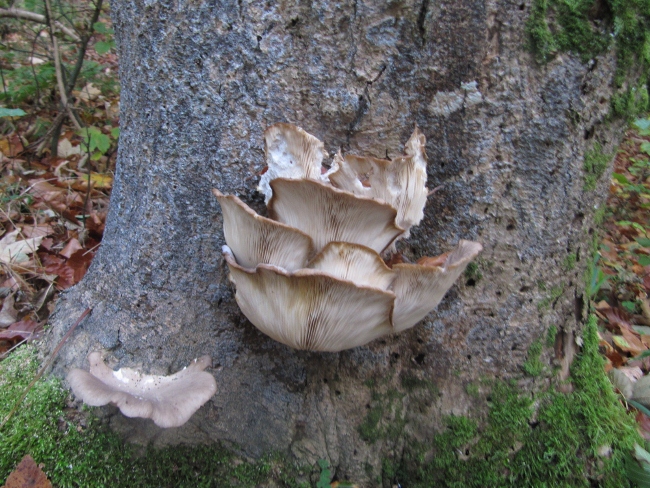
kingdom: Fungi
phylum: Basidiomycota
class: Agaricomycetes
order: Agaricales
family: Pleurotaceae
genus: Pleurotus
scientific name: Pleurotus ostreatus
